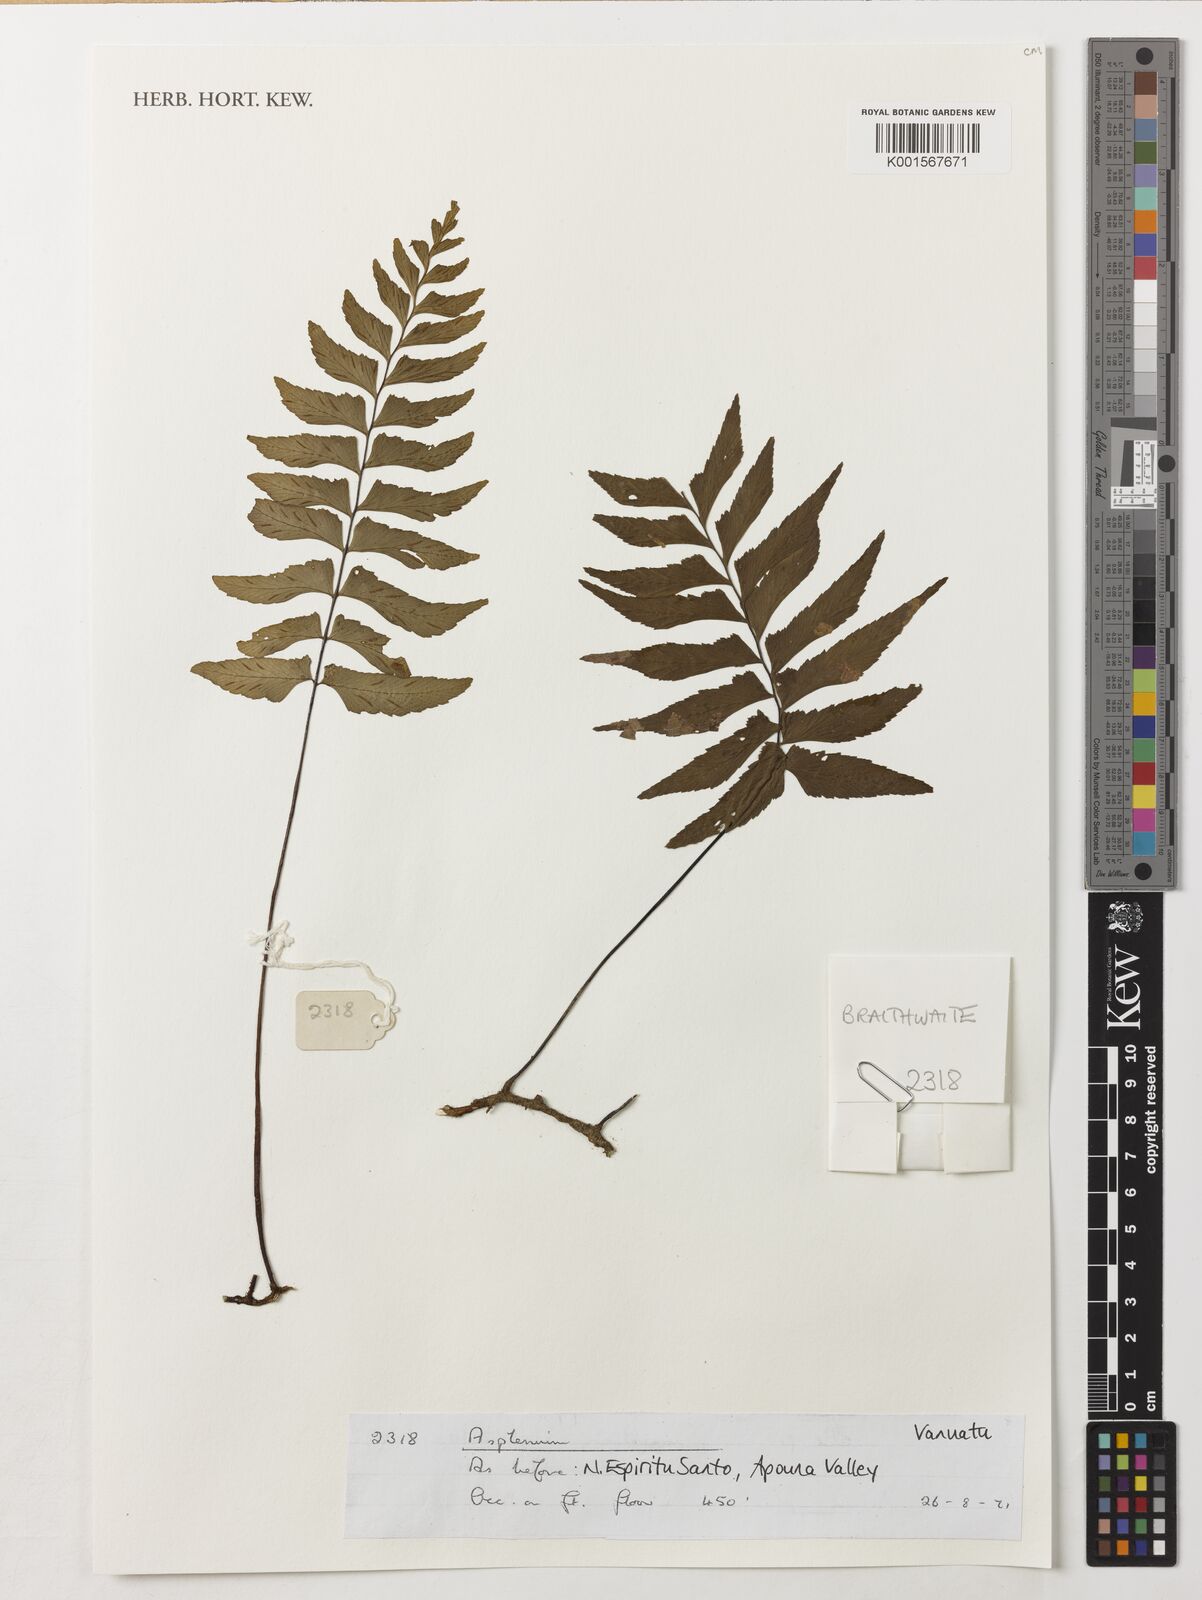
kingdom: Plantae
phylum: Tracheophyta
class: Polypodiopsida
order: Polypodiales
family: Aspleniaceae
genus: Asplenium
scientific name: Asplenium
